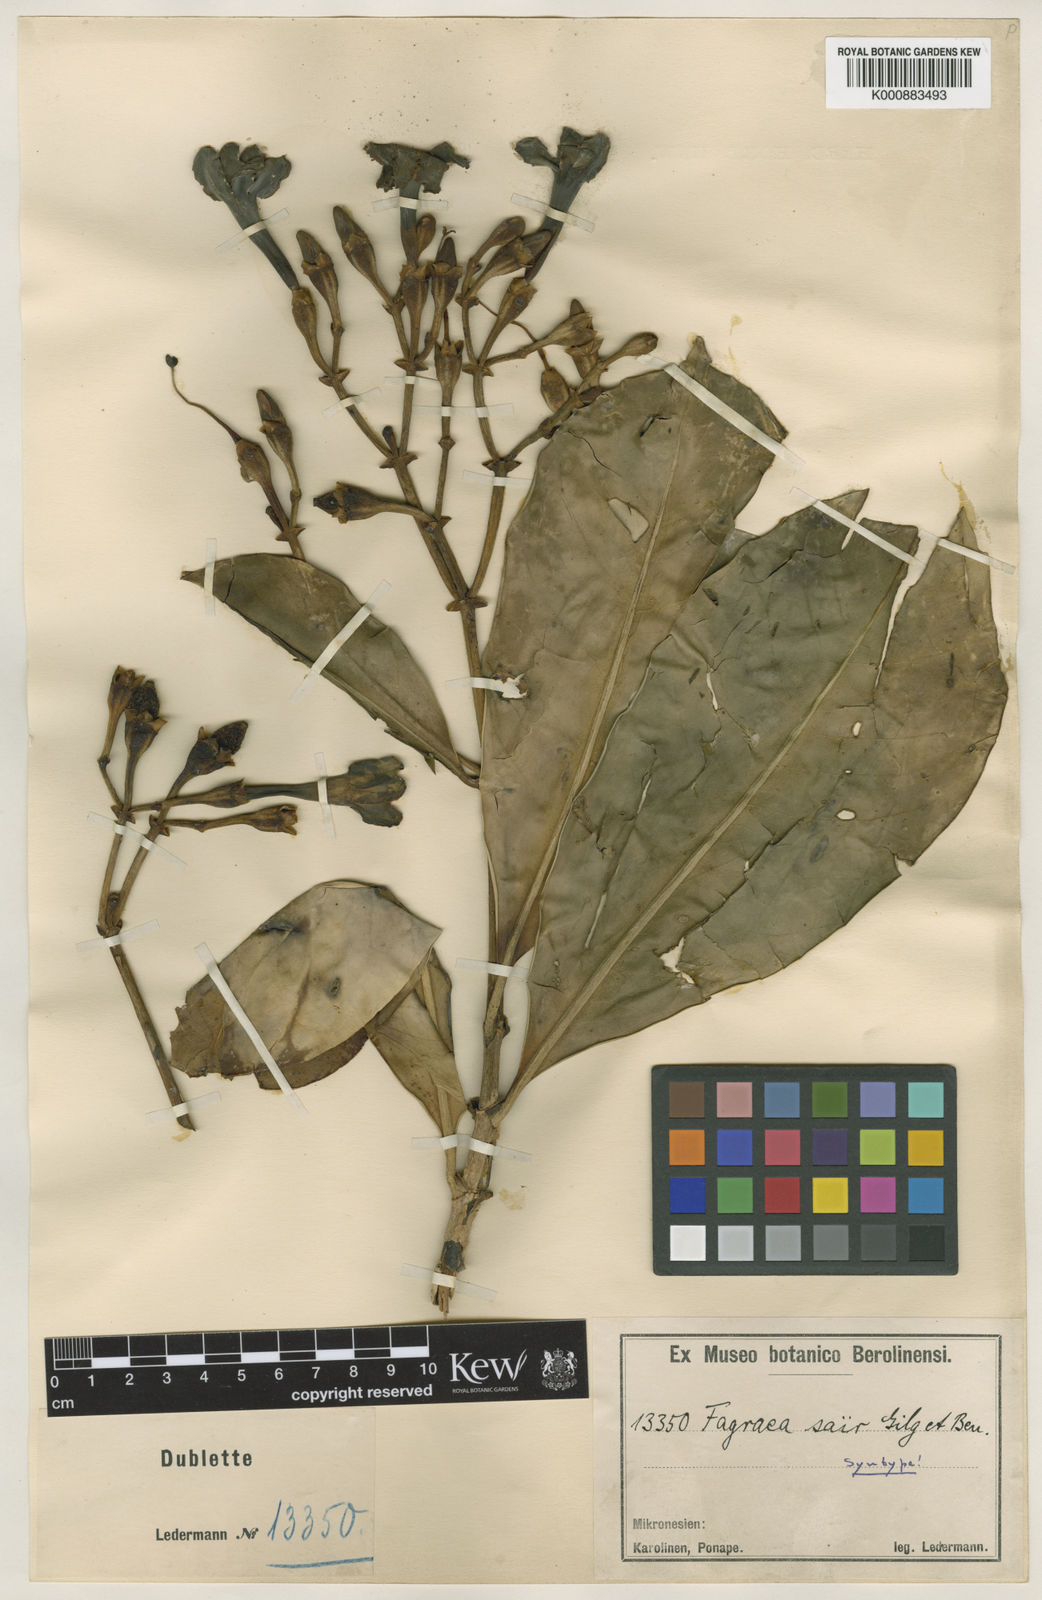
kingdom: Plantae
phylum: Tracheophyta
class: Magnoliopsida
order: Gentianales
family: Gentianaceae
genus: Fagraea
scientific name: Fagraea berteroana
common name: Cape jitta
